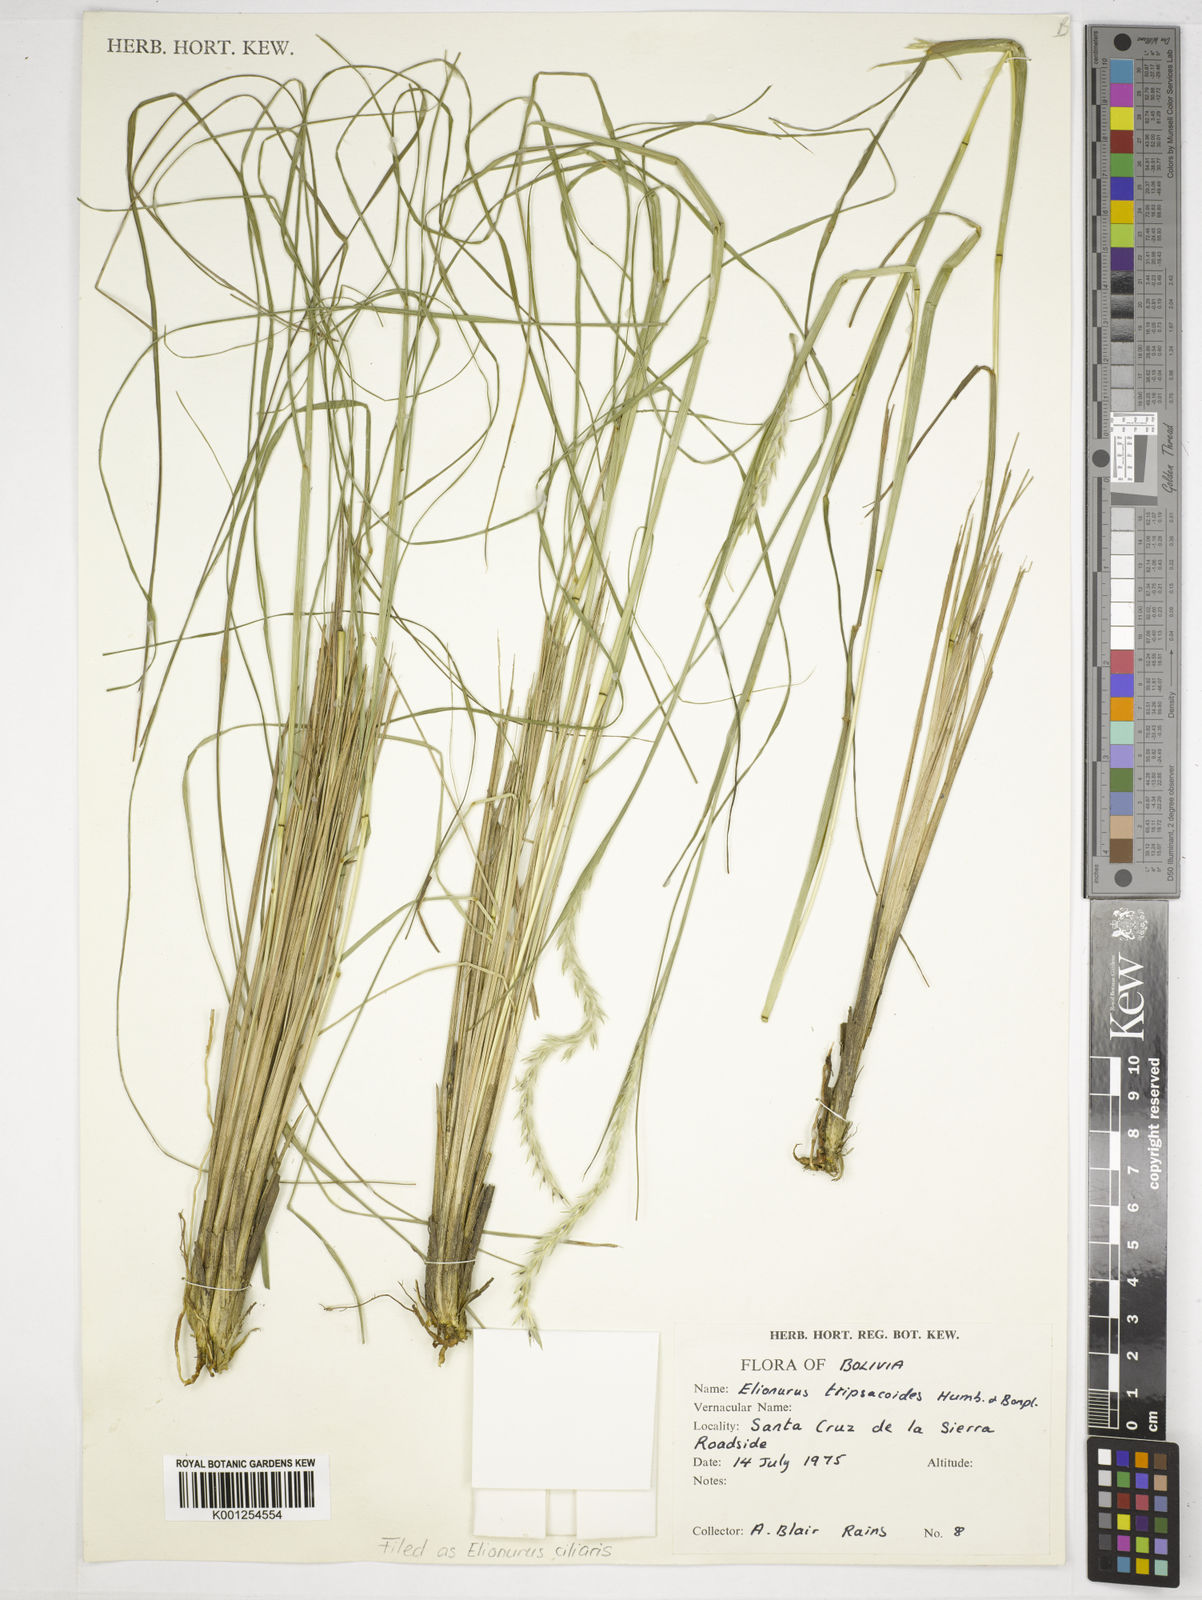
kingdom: Plantae
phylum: Tracheophyta
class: Liliopsida
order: Poales
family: Poaceae
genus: Elionurus
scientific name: Elionurus ciliaris
